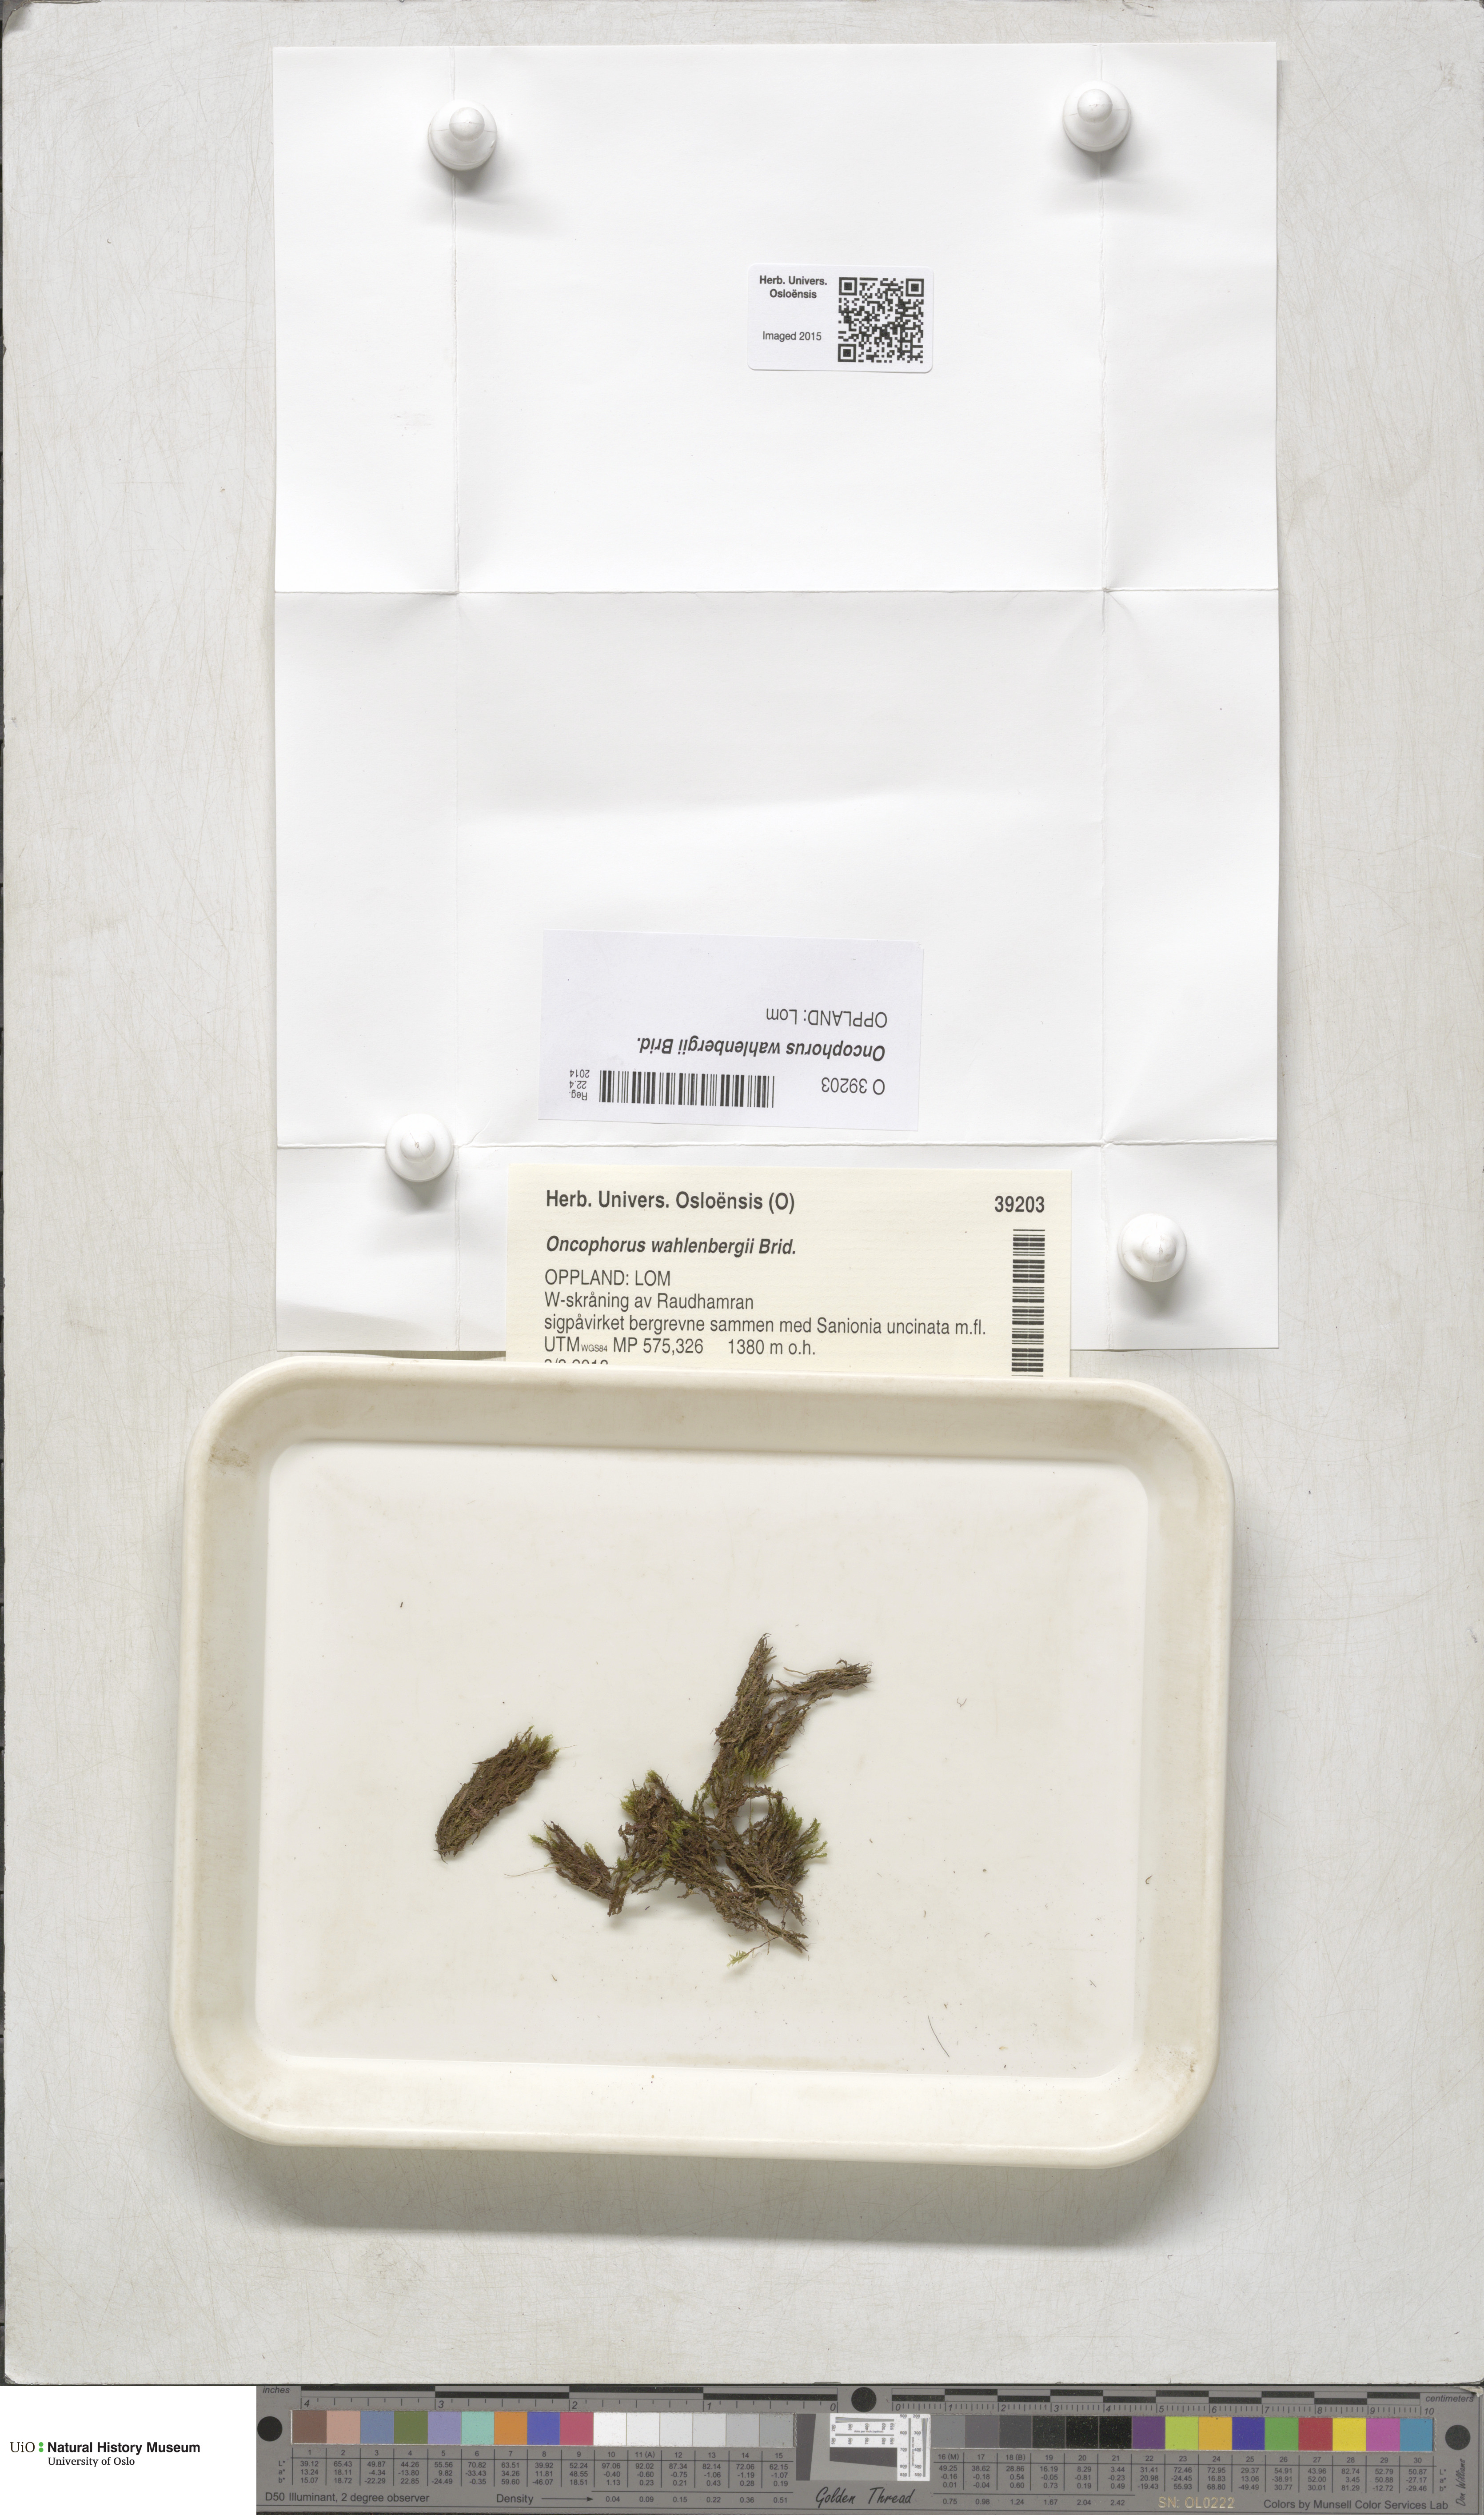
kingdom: Plantae
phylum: Bryophyta
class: Bryopsida
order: Dicranales
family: Rhabdoweisiaceae
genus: Brideliella
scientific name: Brideliella wahlenbergii
